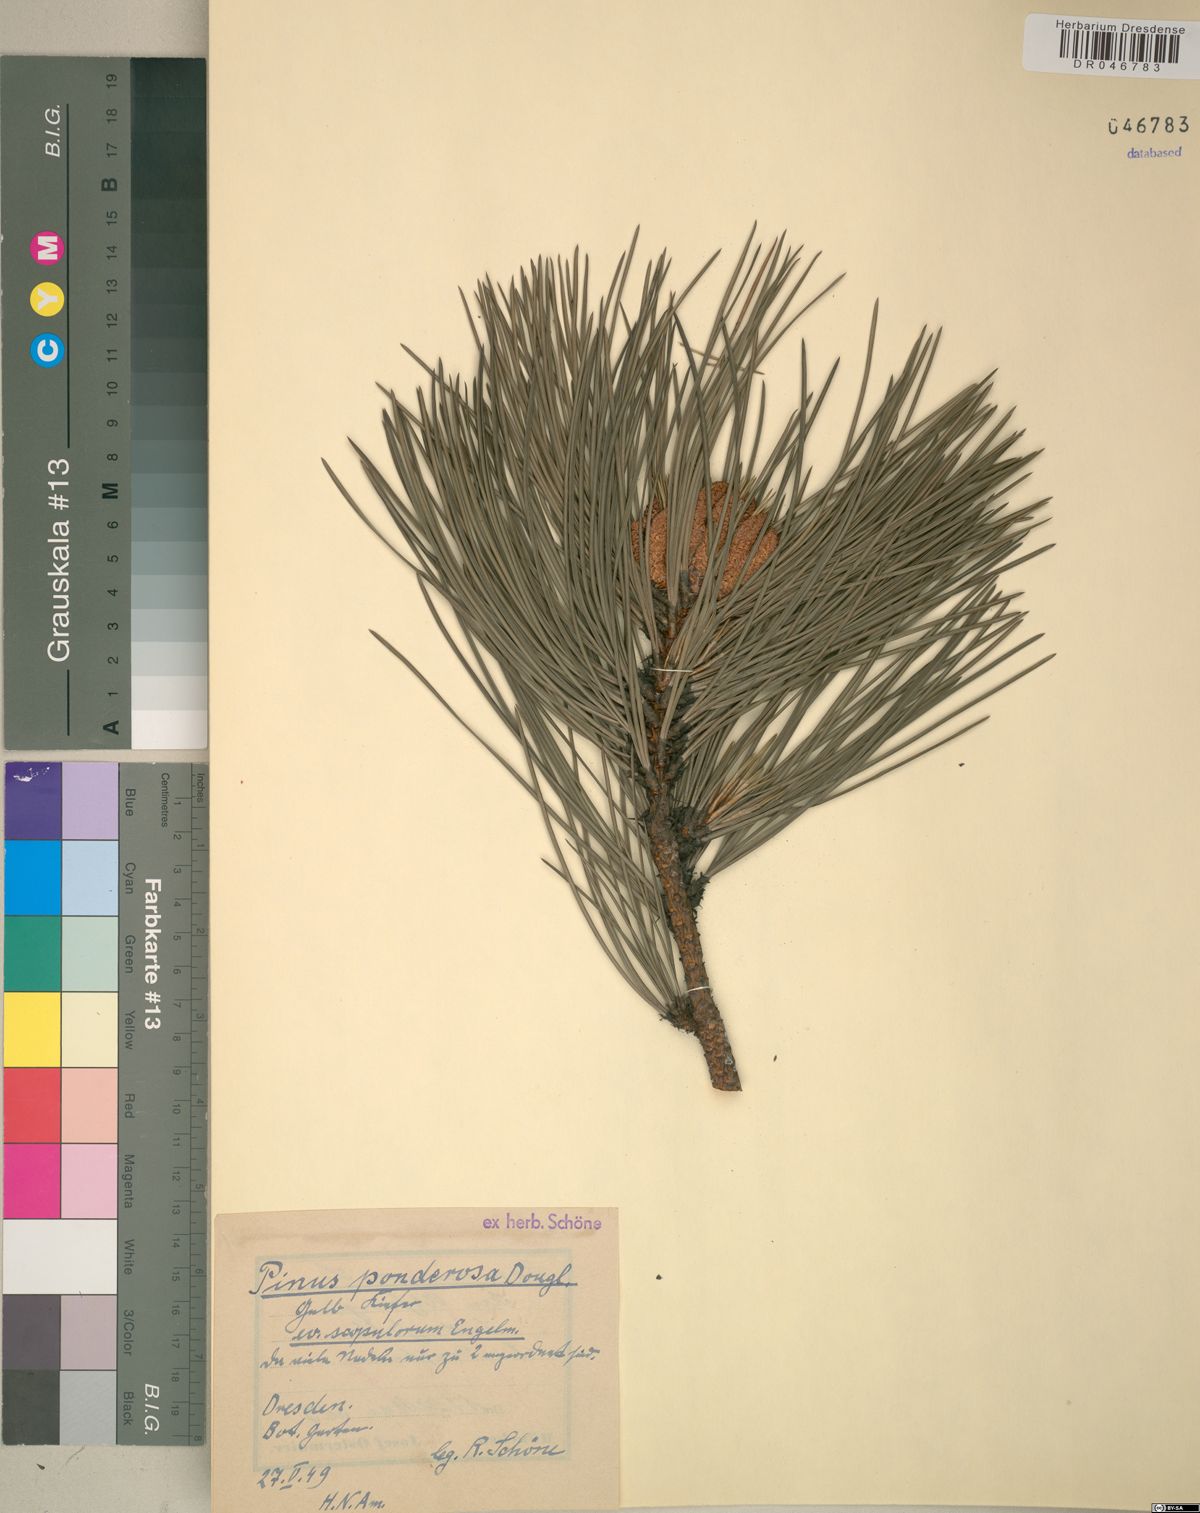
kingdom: Plantae
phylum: Tracheophyta
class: Pinopsida
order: Pinales
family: Pinaceae
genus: Pinus
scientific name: Pinus ponderosa
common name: Western yellow-pine
